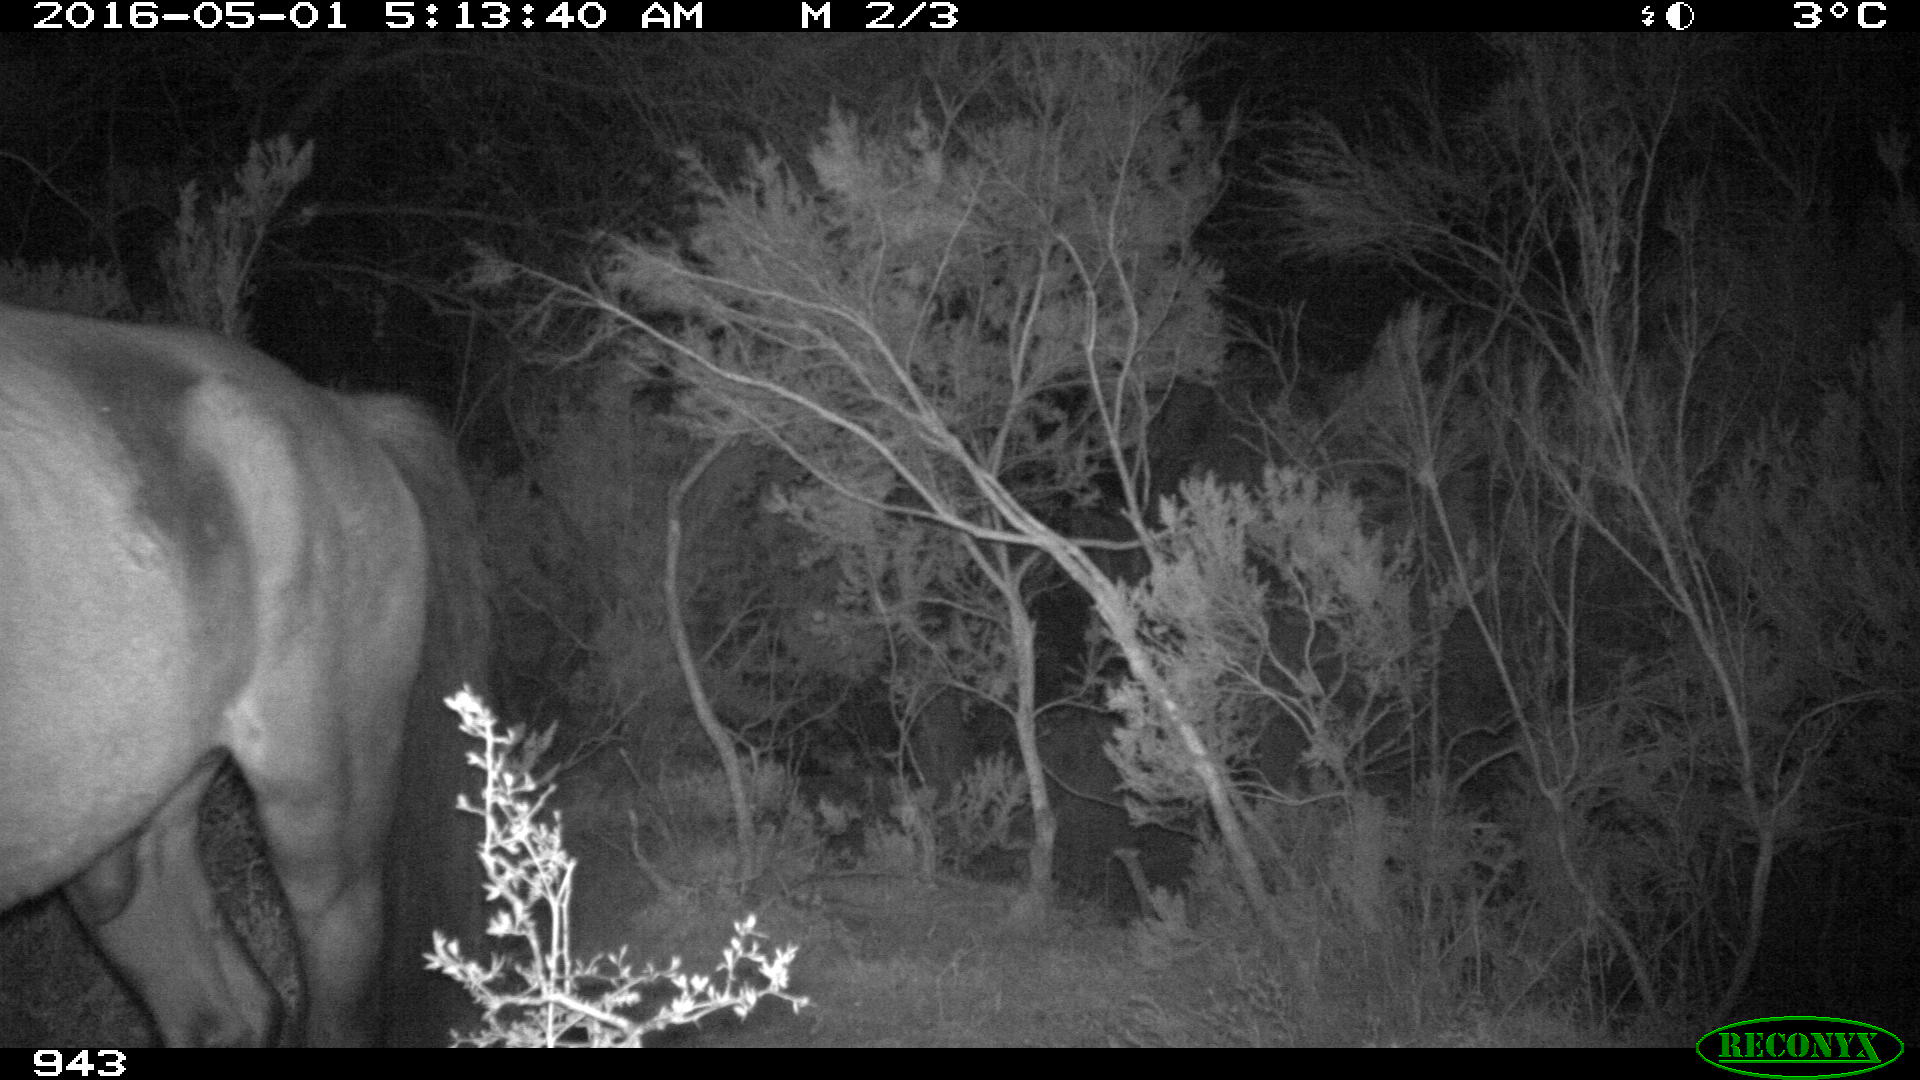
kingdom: Animalia
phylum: Chordata
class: Mammalia
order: Perissodactyla
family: Equidae
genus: Equus
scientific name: Equus caballus
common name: Horse
